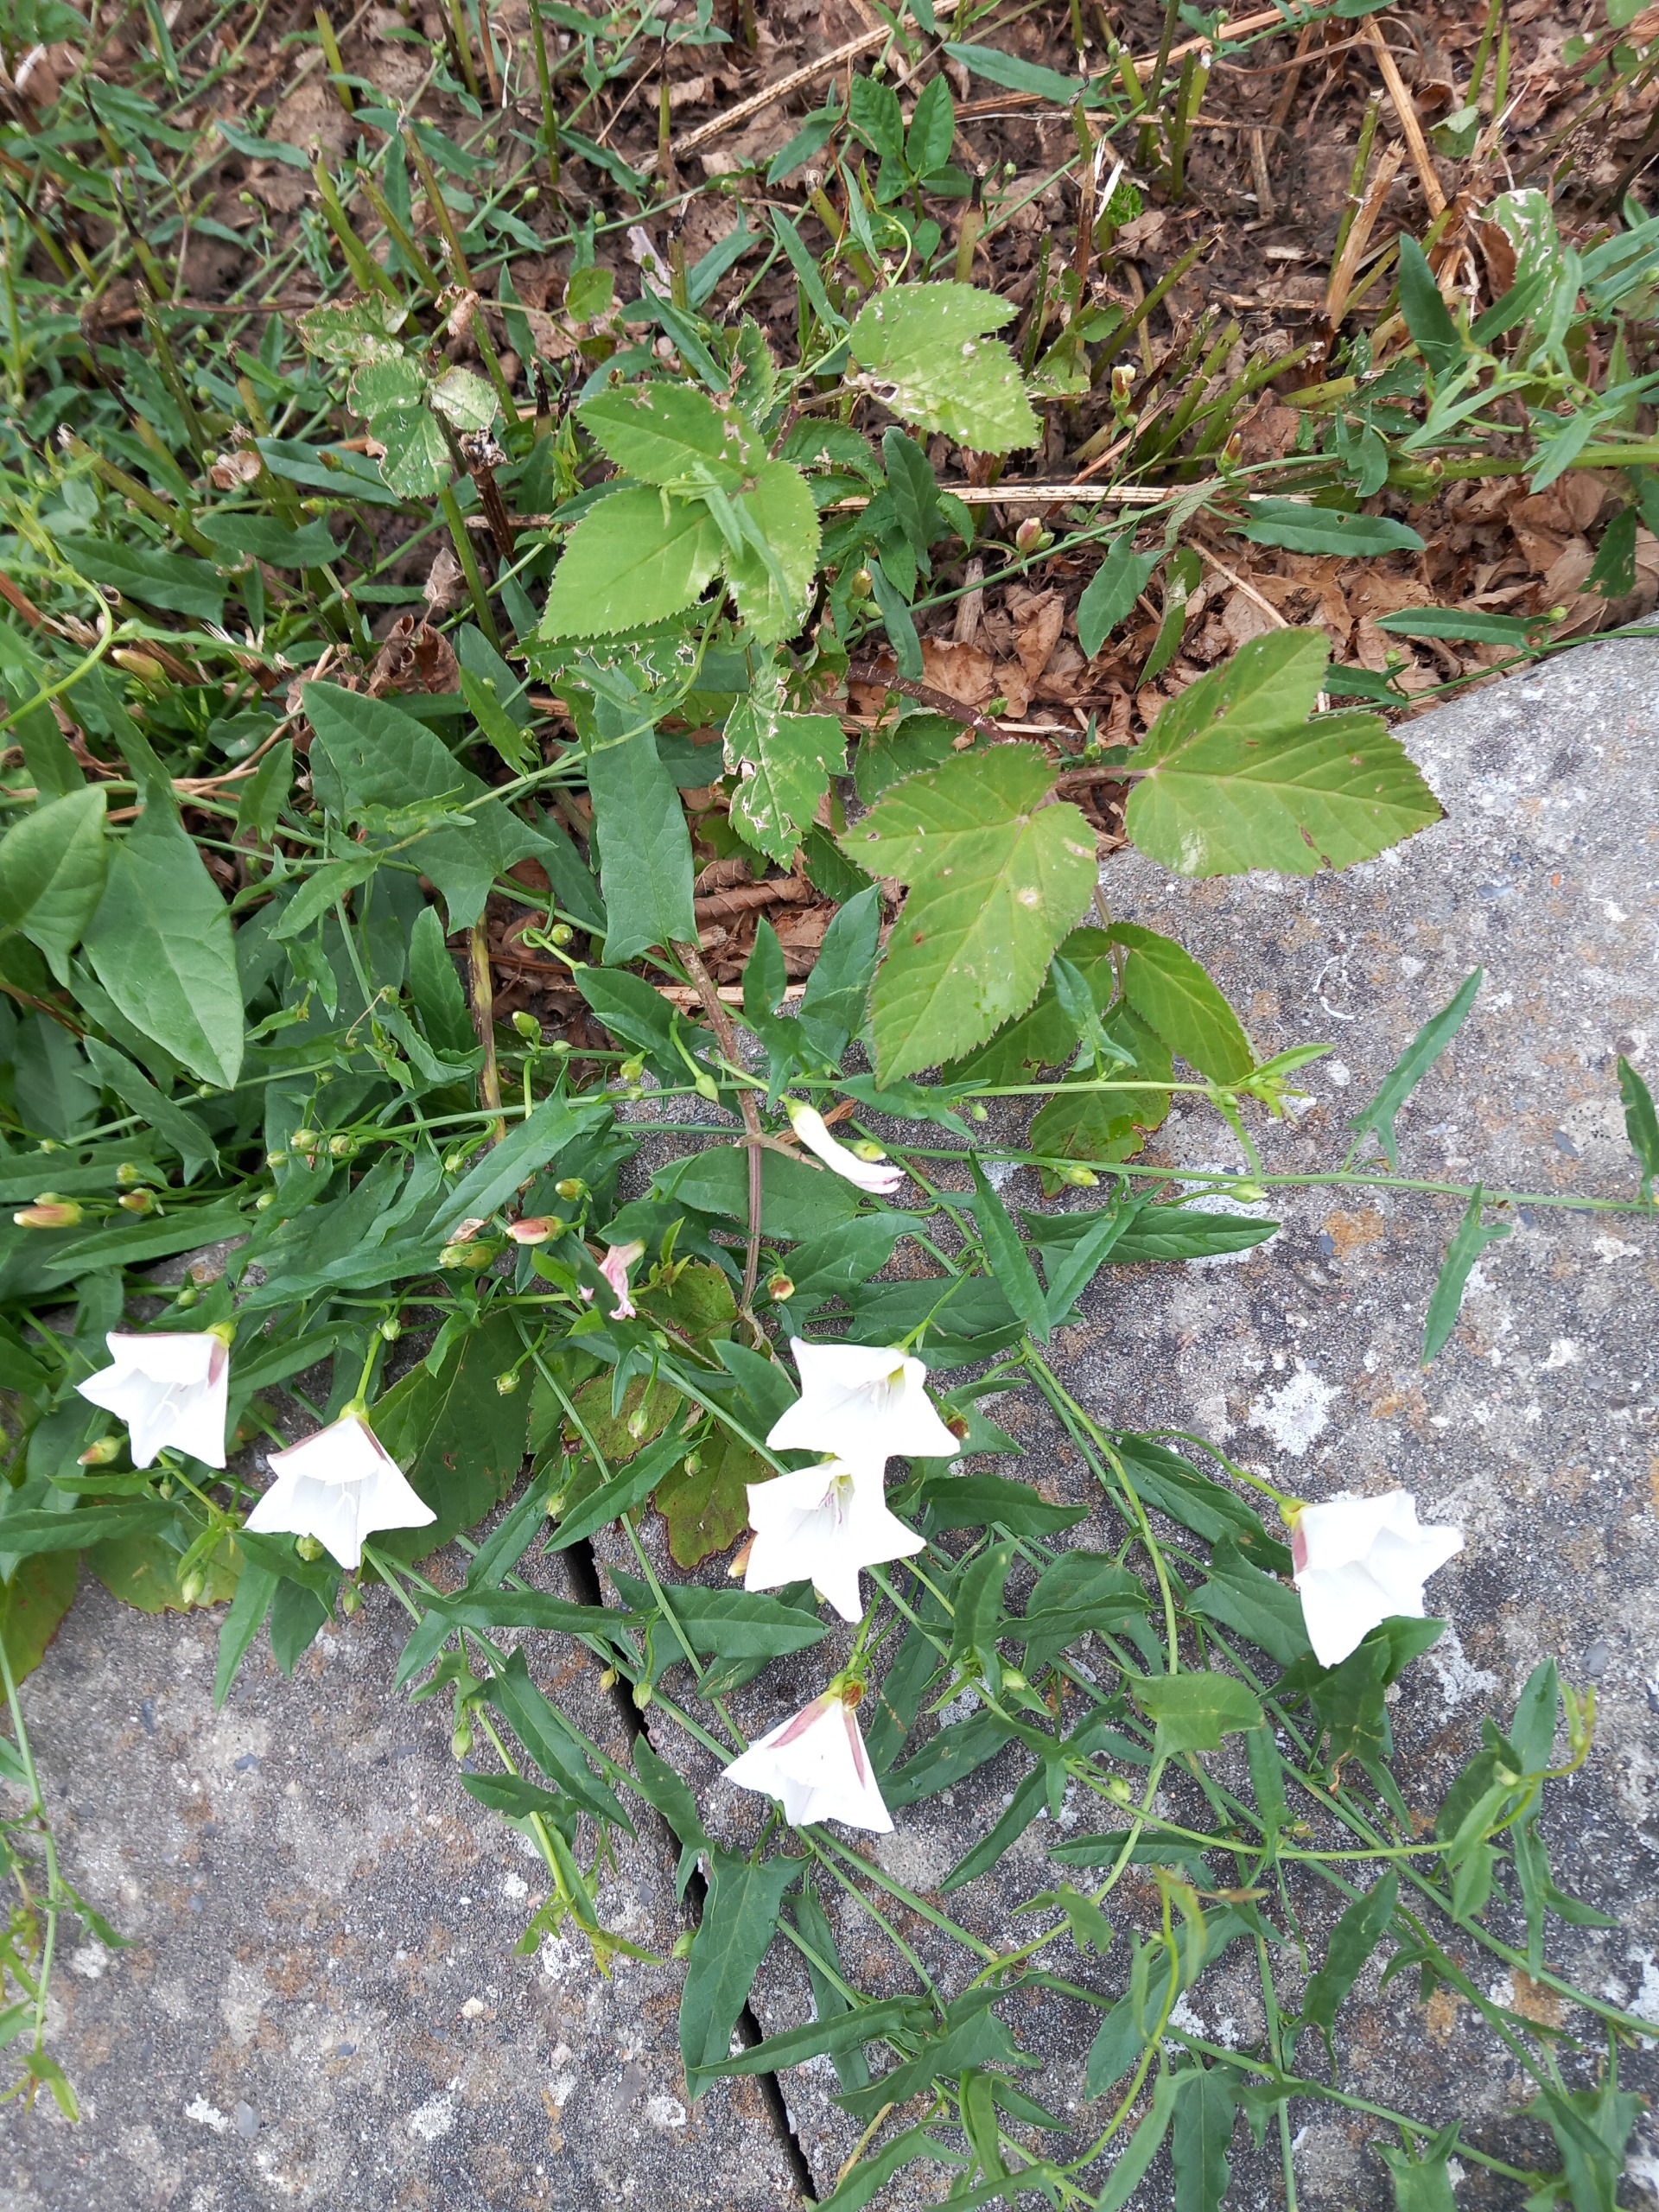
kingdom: Plantae
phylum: Tracheophyta
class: Magnoliopsida
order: Solanales
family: Convolvulaceae
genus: Convolvulus
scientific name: Convolvulus arvensis
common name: Ager-snerle
